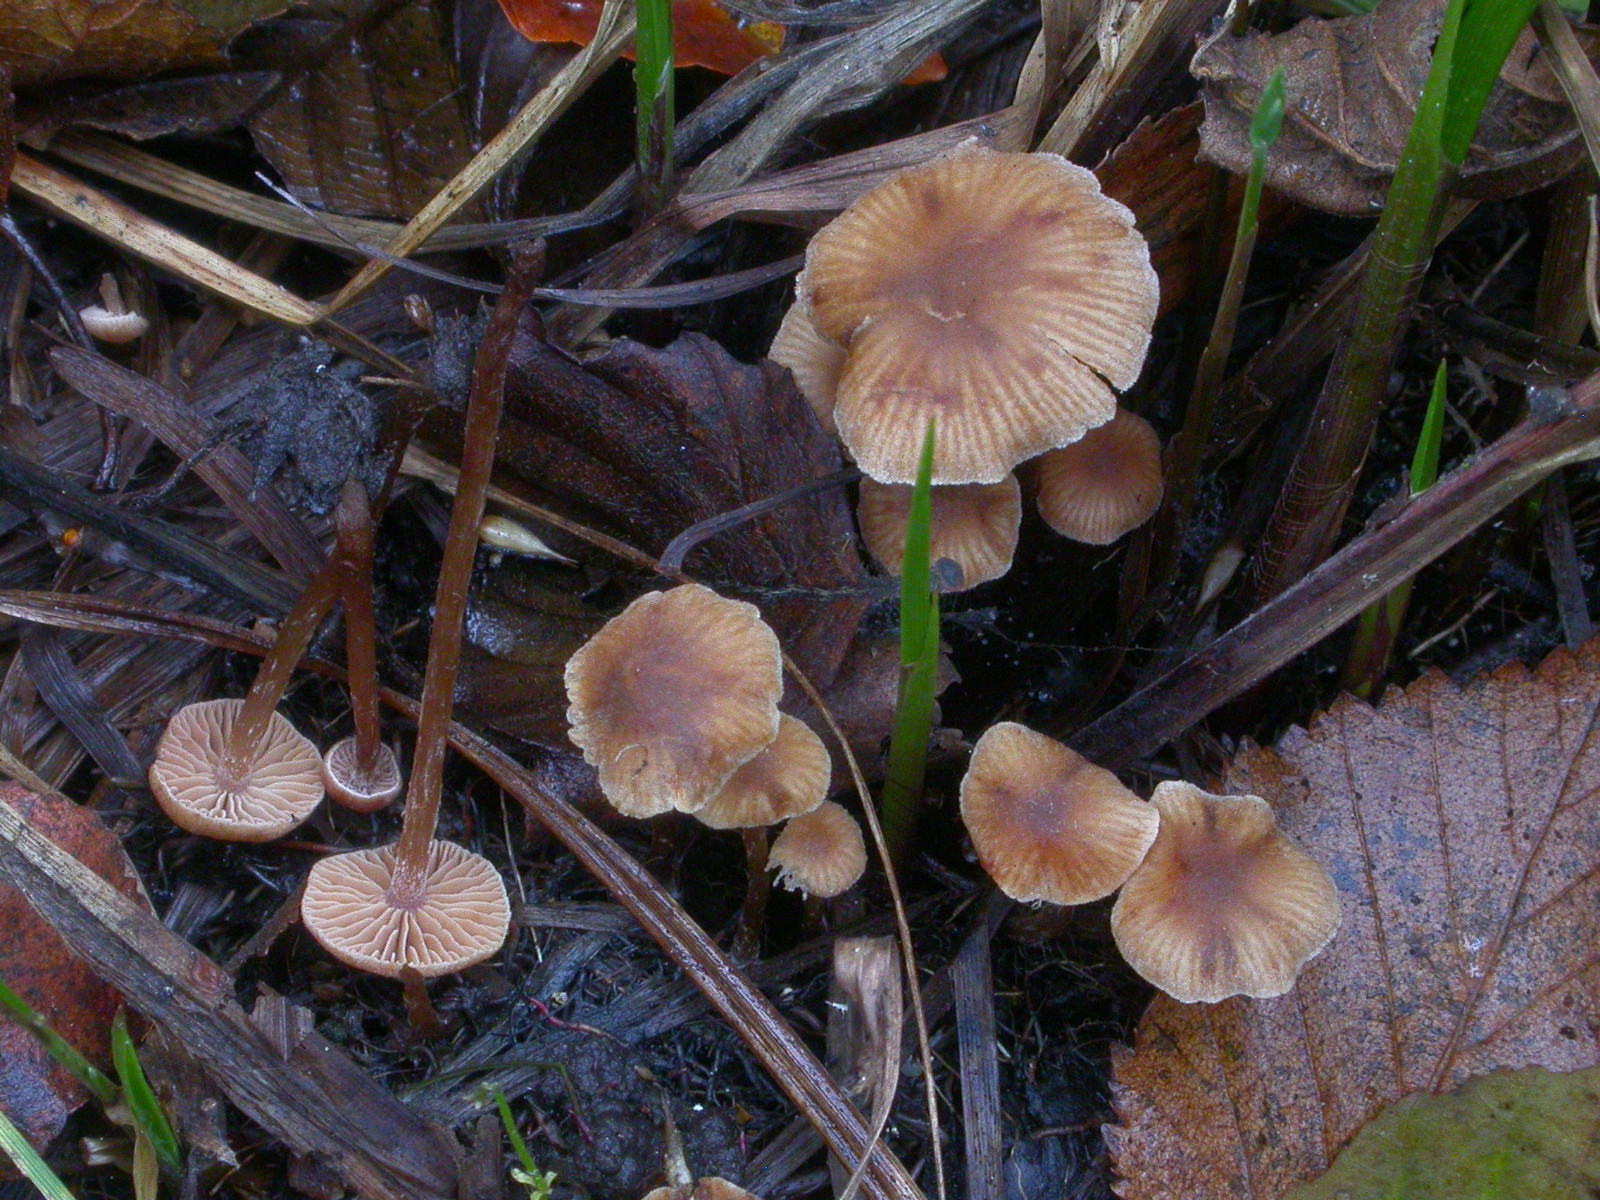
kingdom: Fungi
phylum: Basidiomycota
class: Agaricomycetes
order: Agaricales
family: Hymenogastraceae
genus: Naucoria
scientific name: Naucoria scolecina
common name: mørk elle-knaphat
